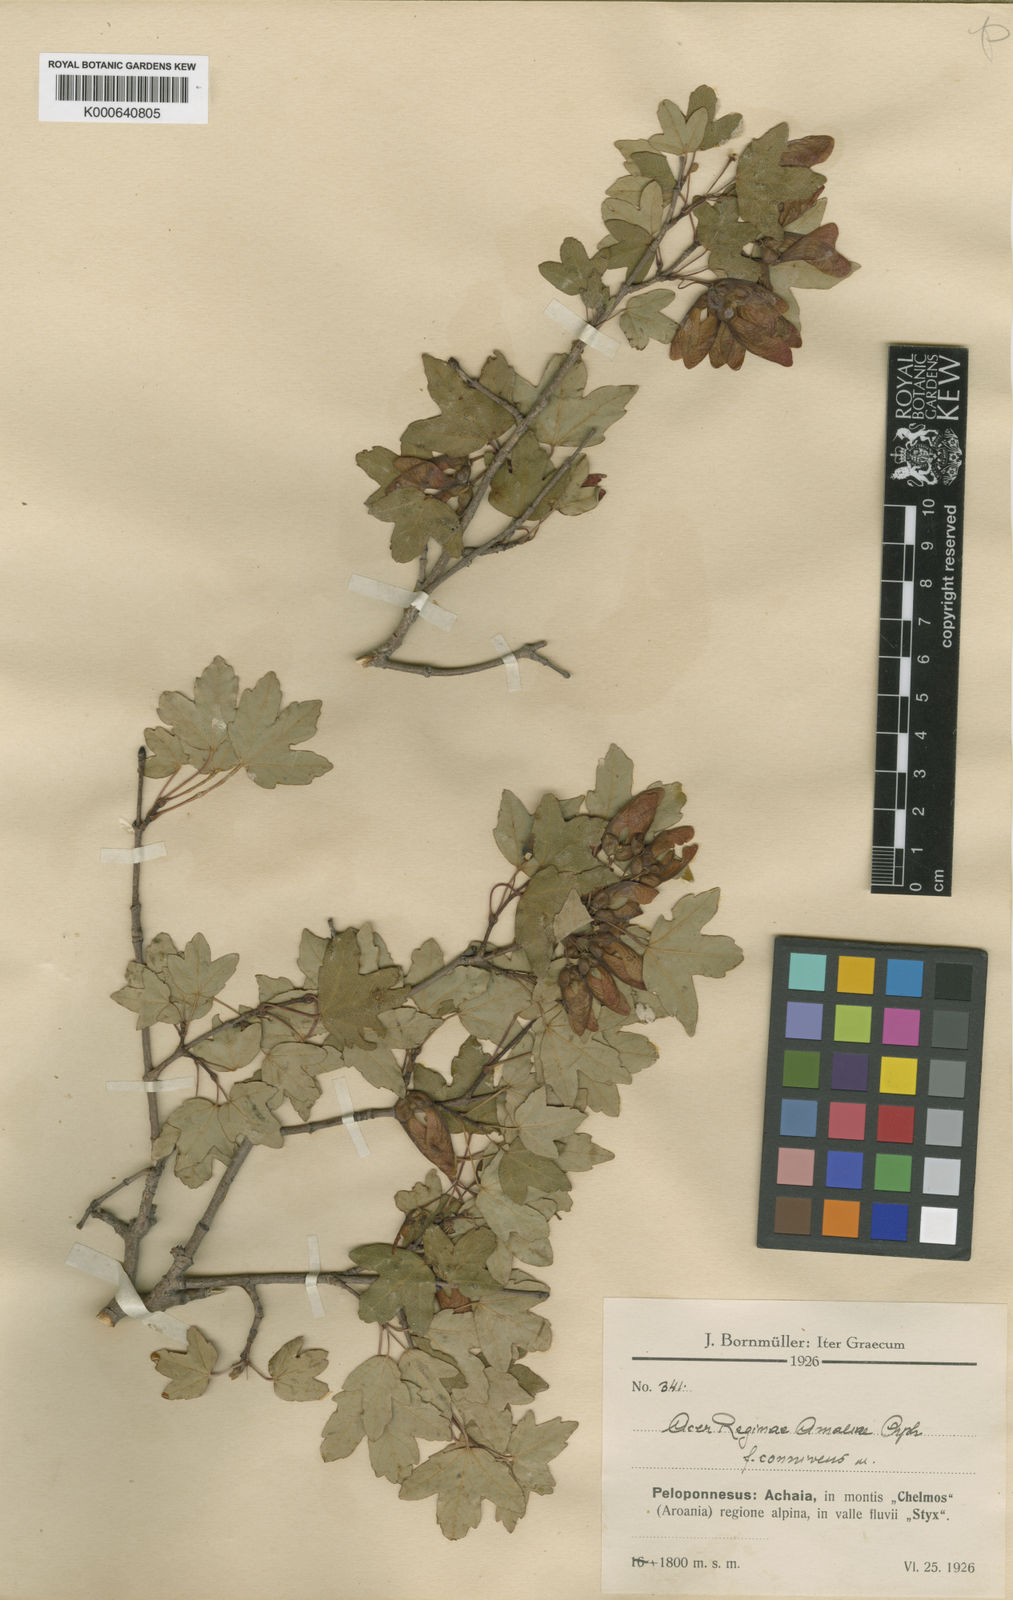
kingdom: Plantae
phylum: Tracheophyta
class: Magnoliopsida
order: Sapindales
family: Sapindaceae
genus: Acer
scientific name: Acer monspessulanum
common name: Montpellier maple
